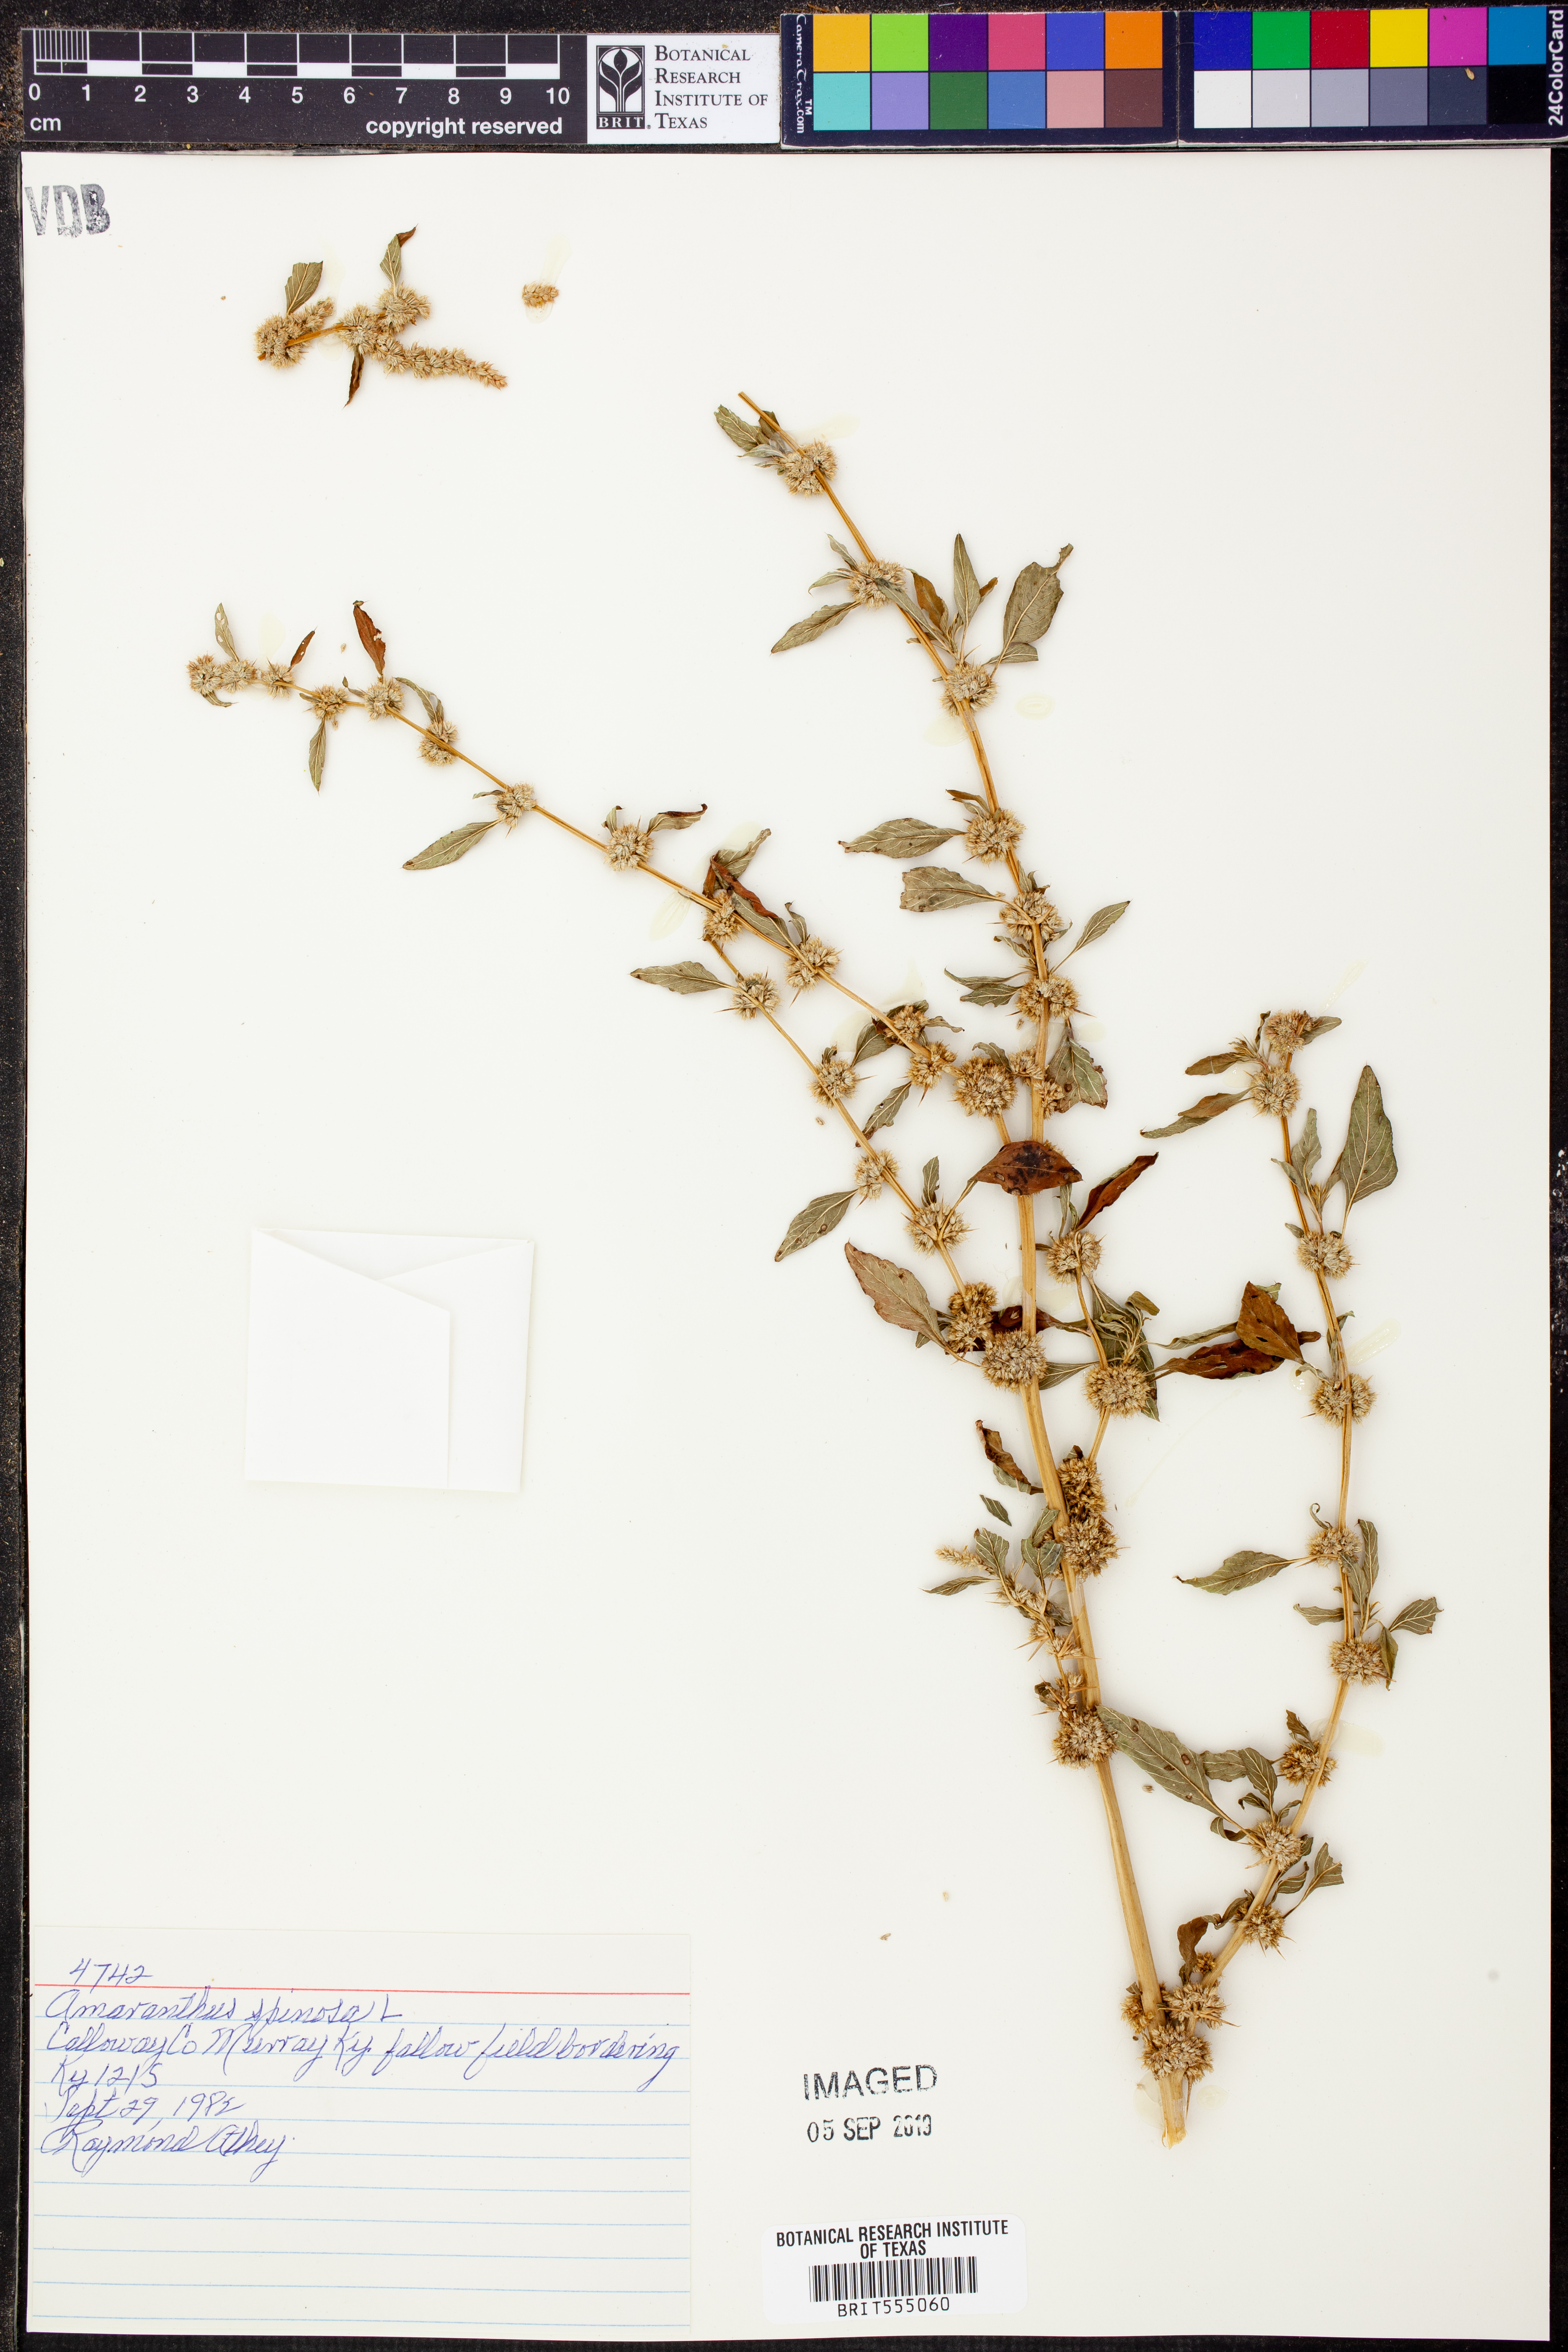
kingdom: Plantae
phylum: Tracheophyta
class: Magnoliopsida
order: Caryophyllales
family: Amaranthaceae
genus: Amaranthus
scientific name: Amaranthus spinosus
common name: Spiny amaranth
